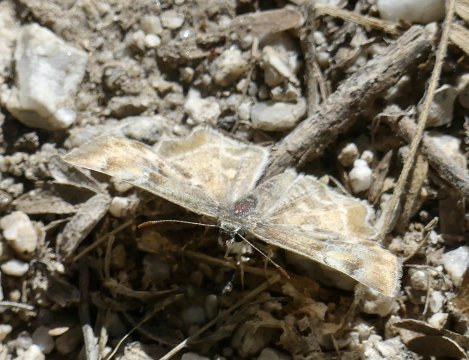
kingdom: Animalia
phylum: Arthropoda
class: Insecta
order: Lepidoptera
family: Hesperiidae
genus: Systasea
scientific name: Systasea zampa
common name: Arizona Powdered-Skipper
